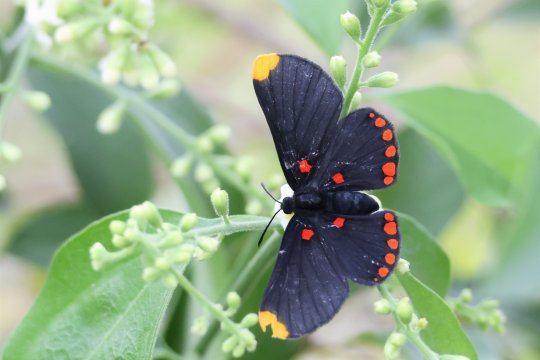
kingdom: Animalia
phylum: Arthropoda
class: Insecta
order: Lepidoptera
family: Lycaenidae
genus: Melanis
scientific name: Melanis pixe
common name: Red-bordered Pixie
